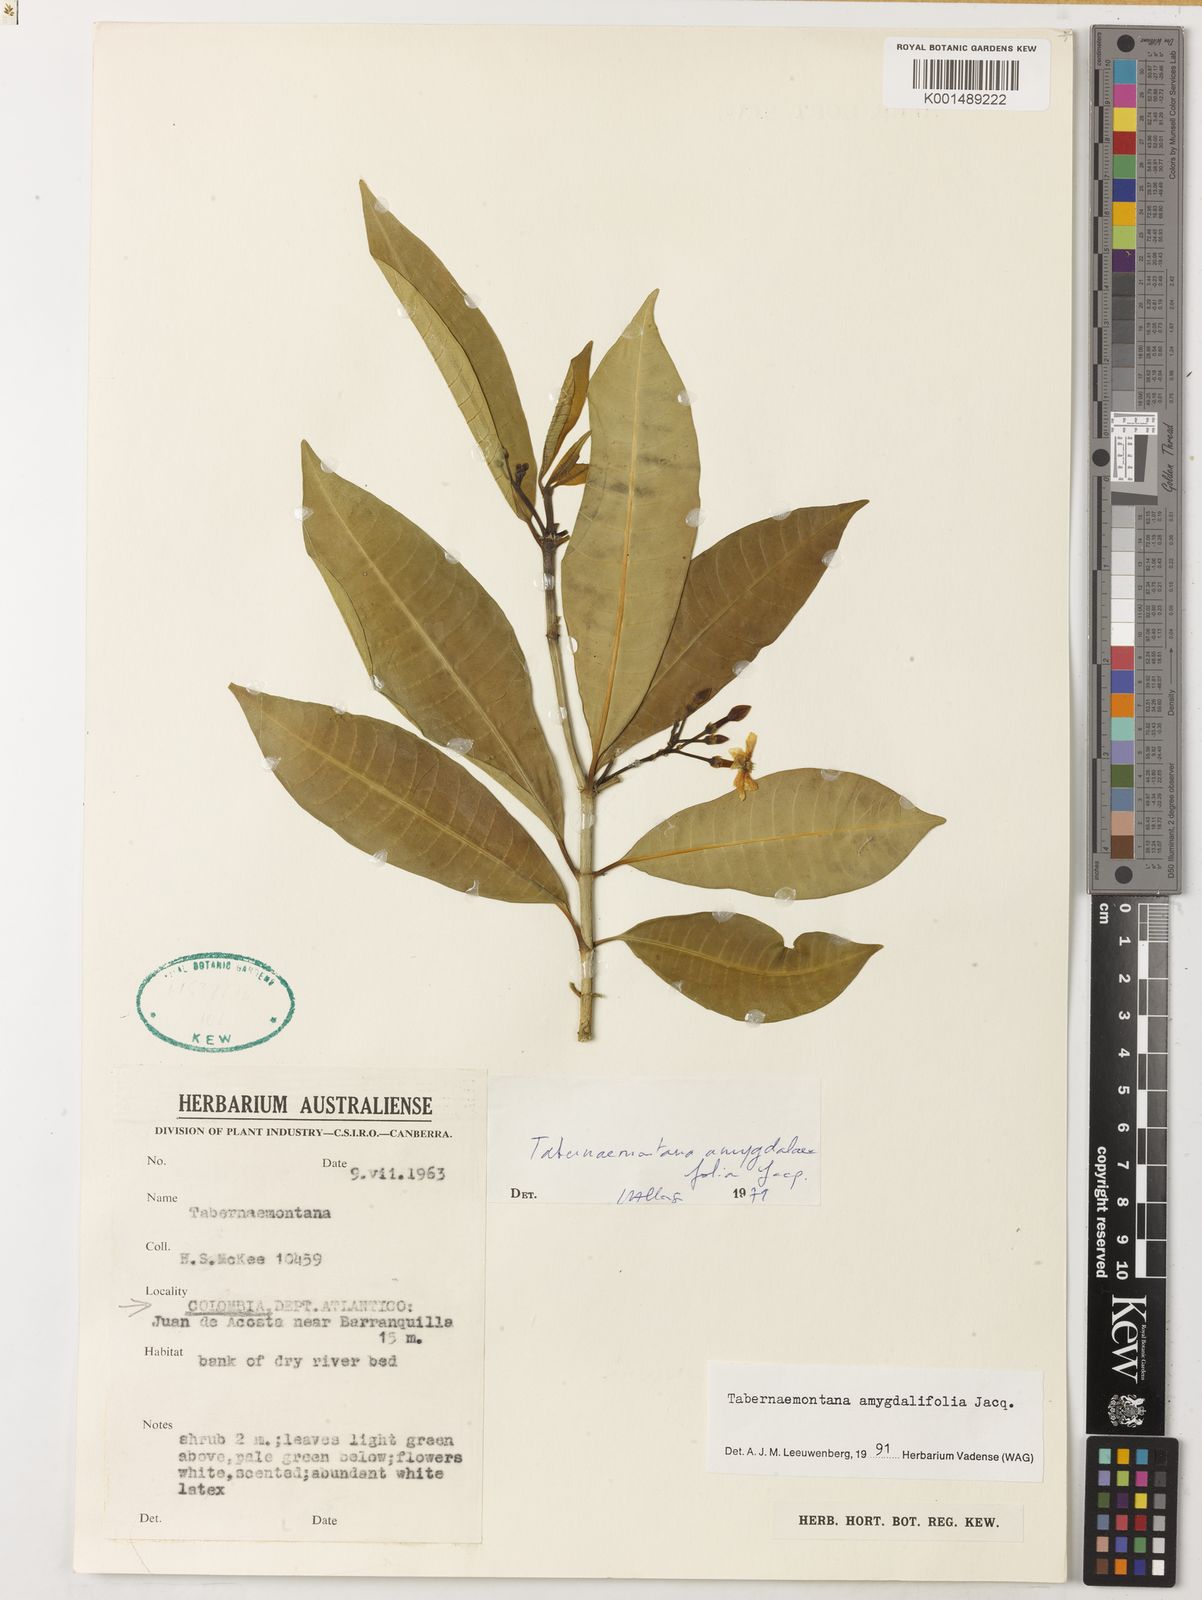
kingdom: Plantae
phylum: Tracheophyta
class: Magnoliopsida
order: Gentianales
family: Apocynaceae
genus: Tabernaemontana
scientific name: Tabernaemontana amygdalifolia
